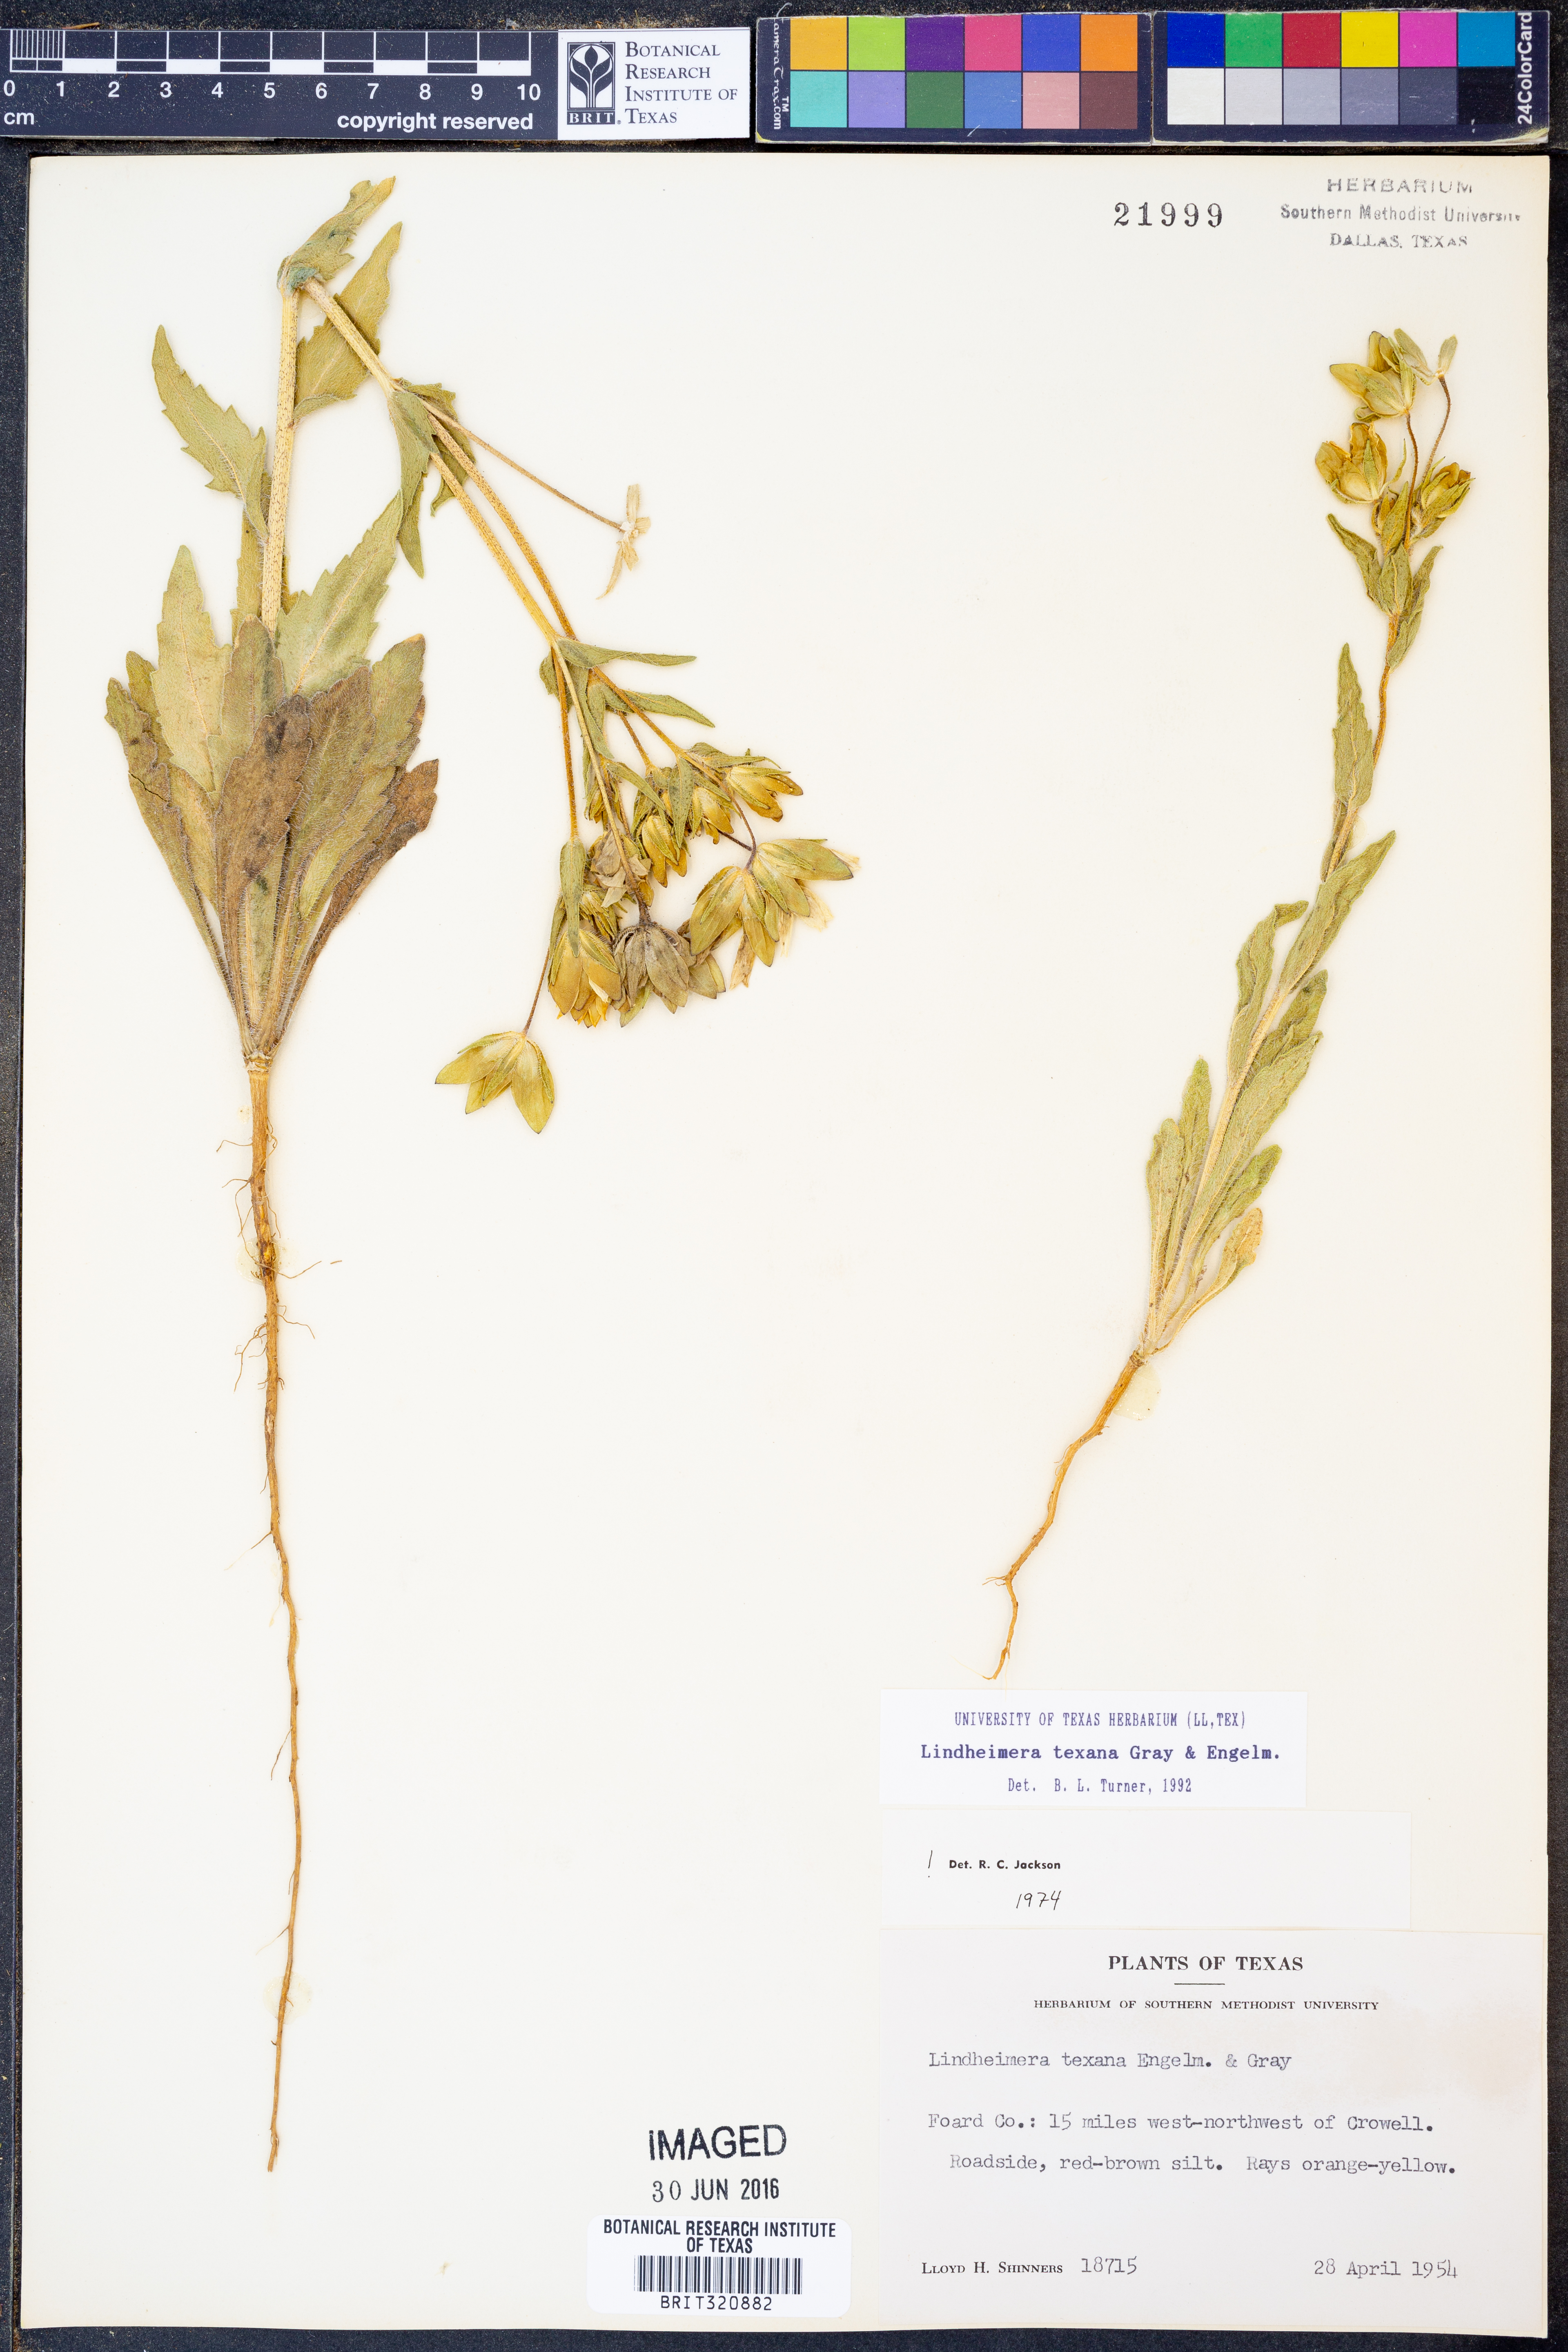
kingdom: Plantae
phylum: Tracheophyta
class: Magnoliopsida
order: Asterales
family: Asteraceae
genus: Lindheimera
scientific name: Lindheimera texana
